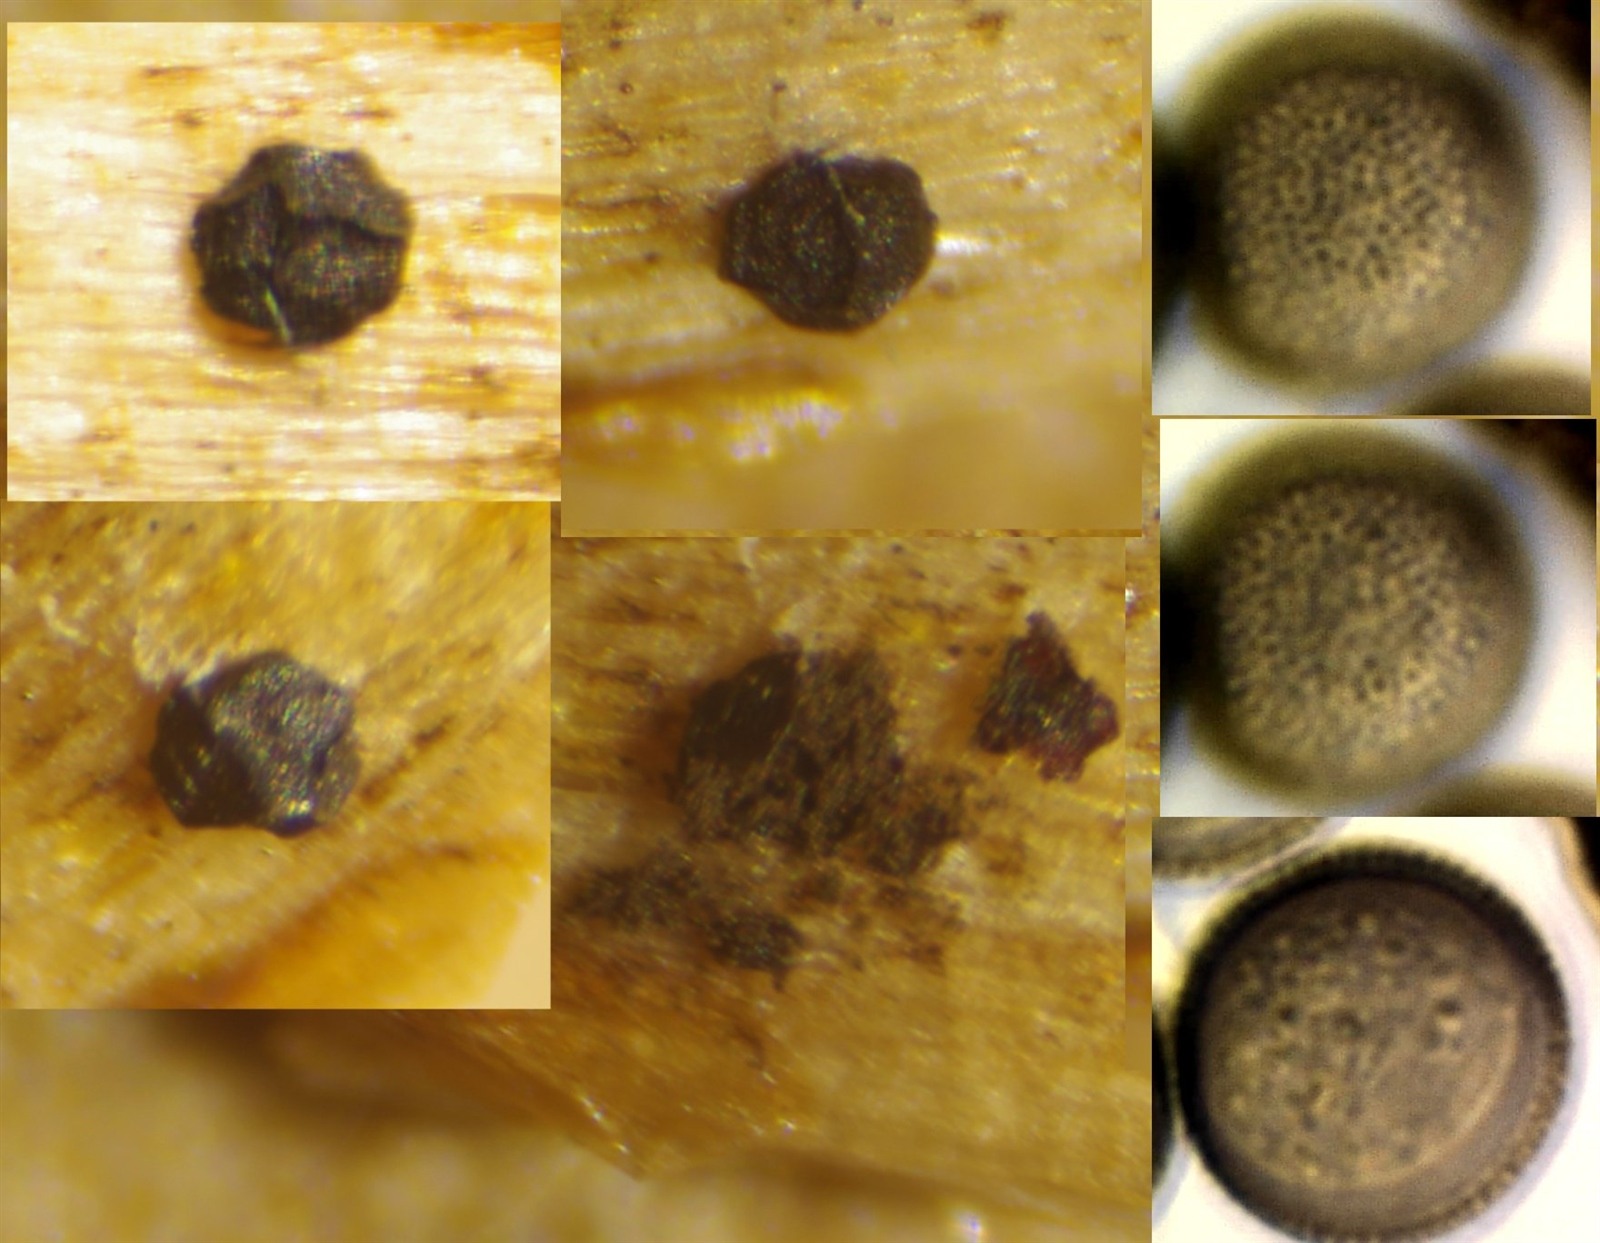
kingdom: Protozoa
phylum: Mycetozoa
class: Myxomycetes
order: Cribrariales
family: Liceaceae
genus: Licea
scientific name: Licea pygmaea
